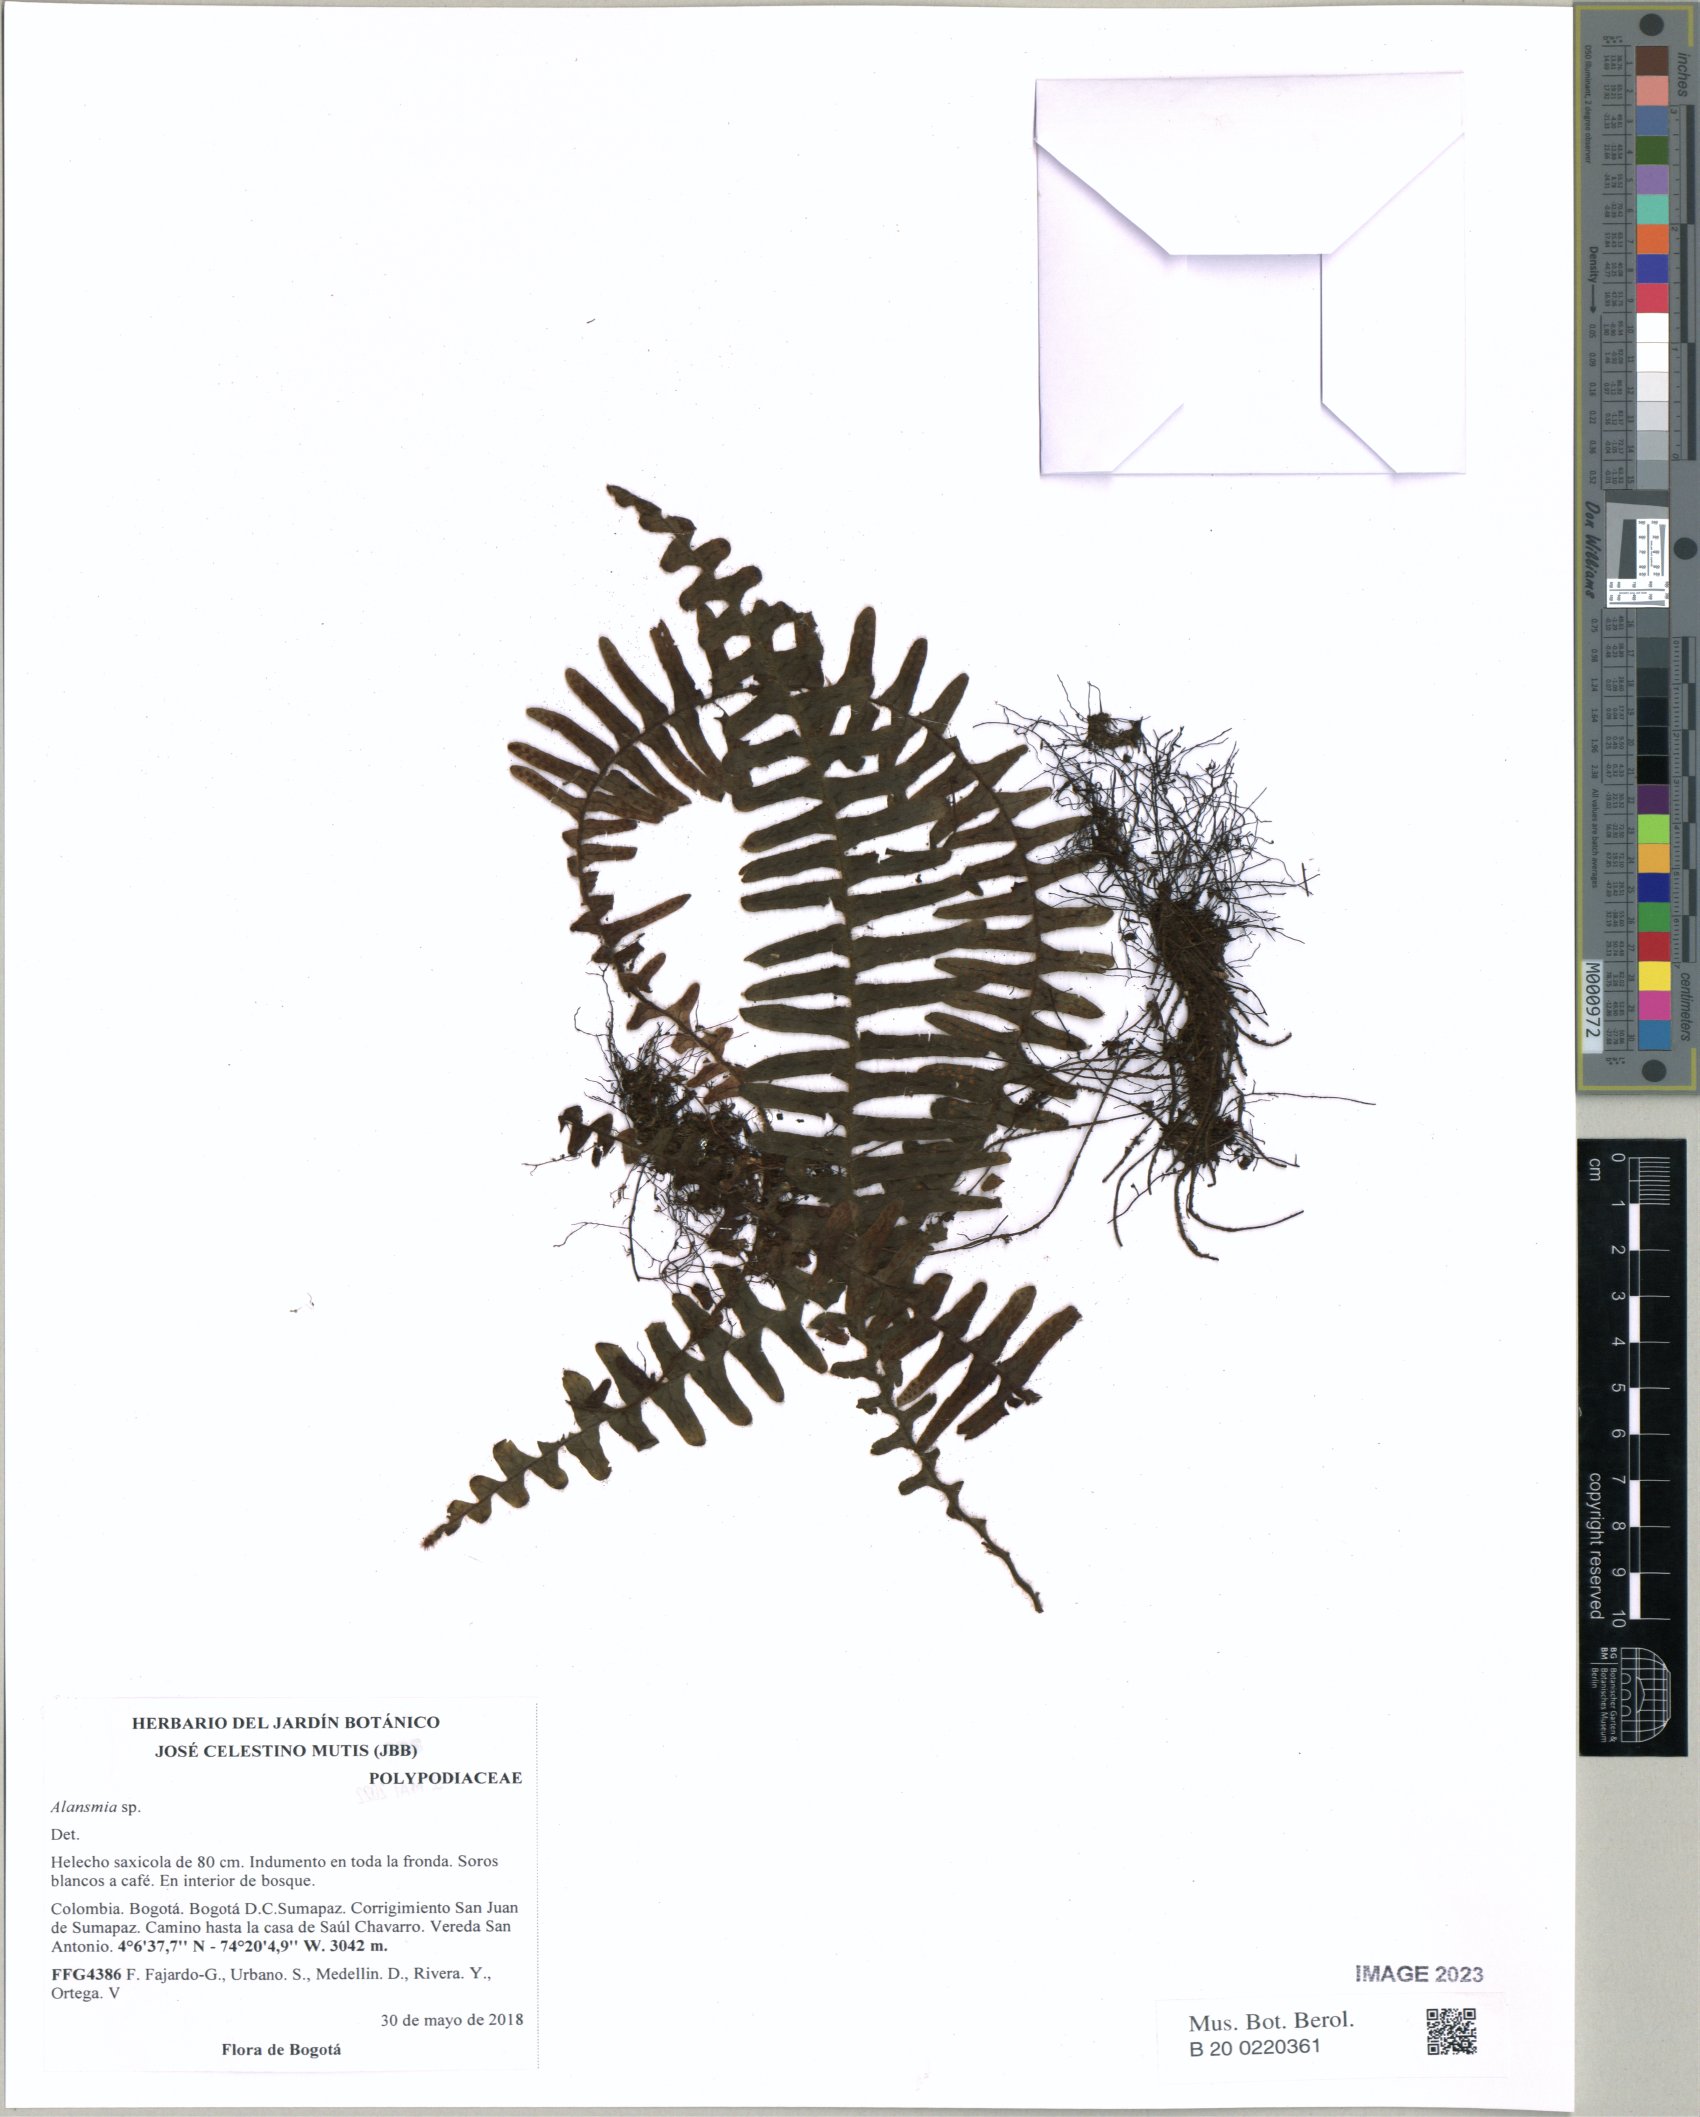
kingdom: Plantae
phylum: Tracheophyta
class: Polypodiopsida
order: Polypodiales
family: Polypodiaceae
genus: Alansmia
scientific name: Alansmia
